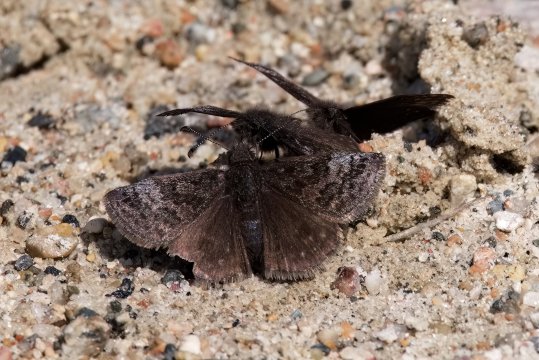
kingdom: Animalia
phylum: Arthropoda
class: Insecta
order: Lepidoptera
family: Hesperiidae
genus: Erynnis
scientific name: Erynnis icelus
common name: Dreamy Duskywing
